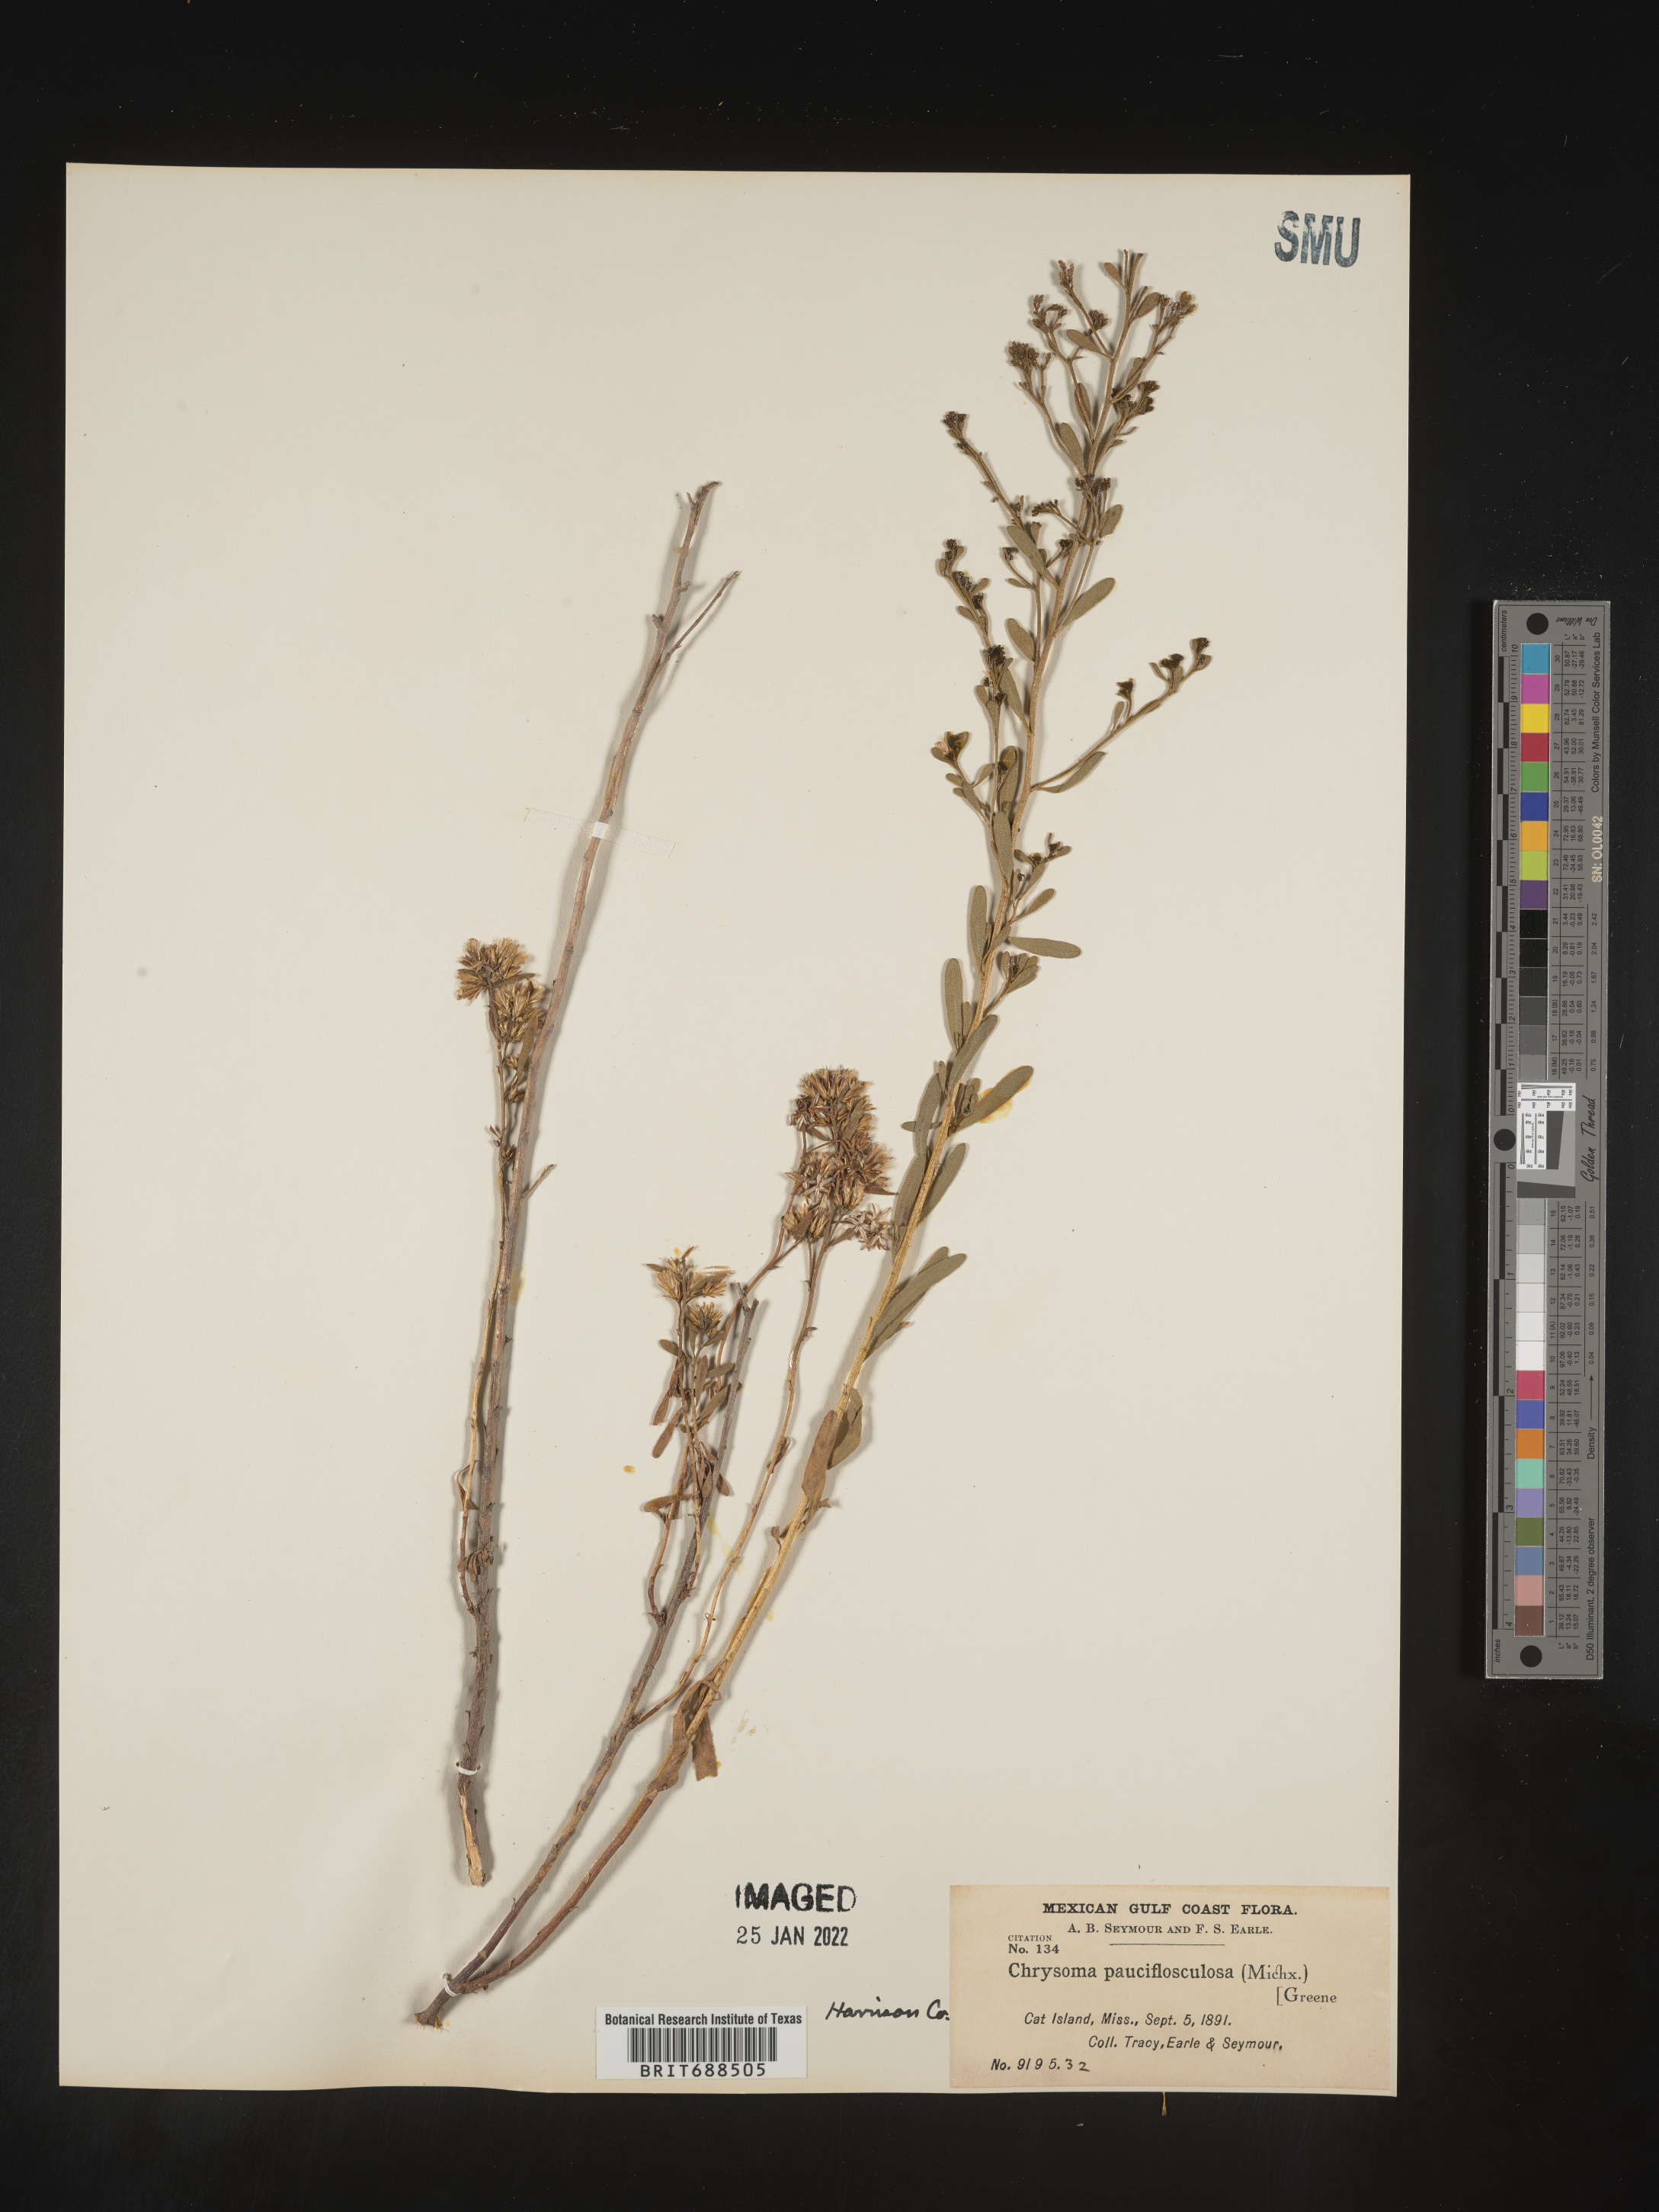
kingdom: Plantae
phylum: Tracheophyta
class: Magnoliopsida
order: Asterales
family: Asteraceae
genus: Chrysoma
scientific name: Chrysoma pauciflosculosa
